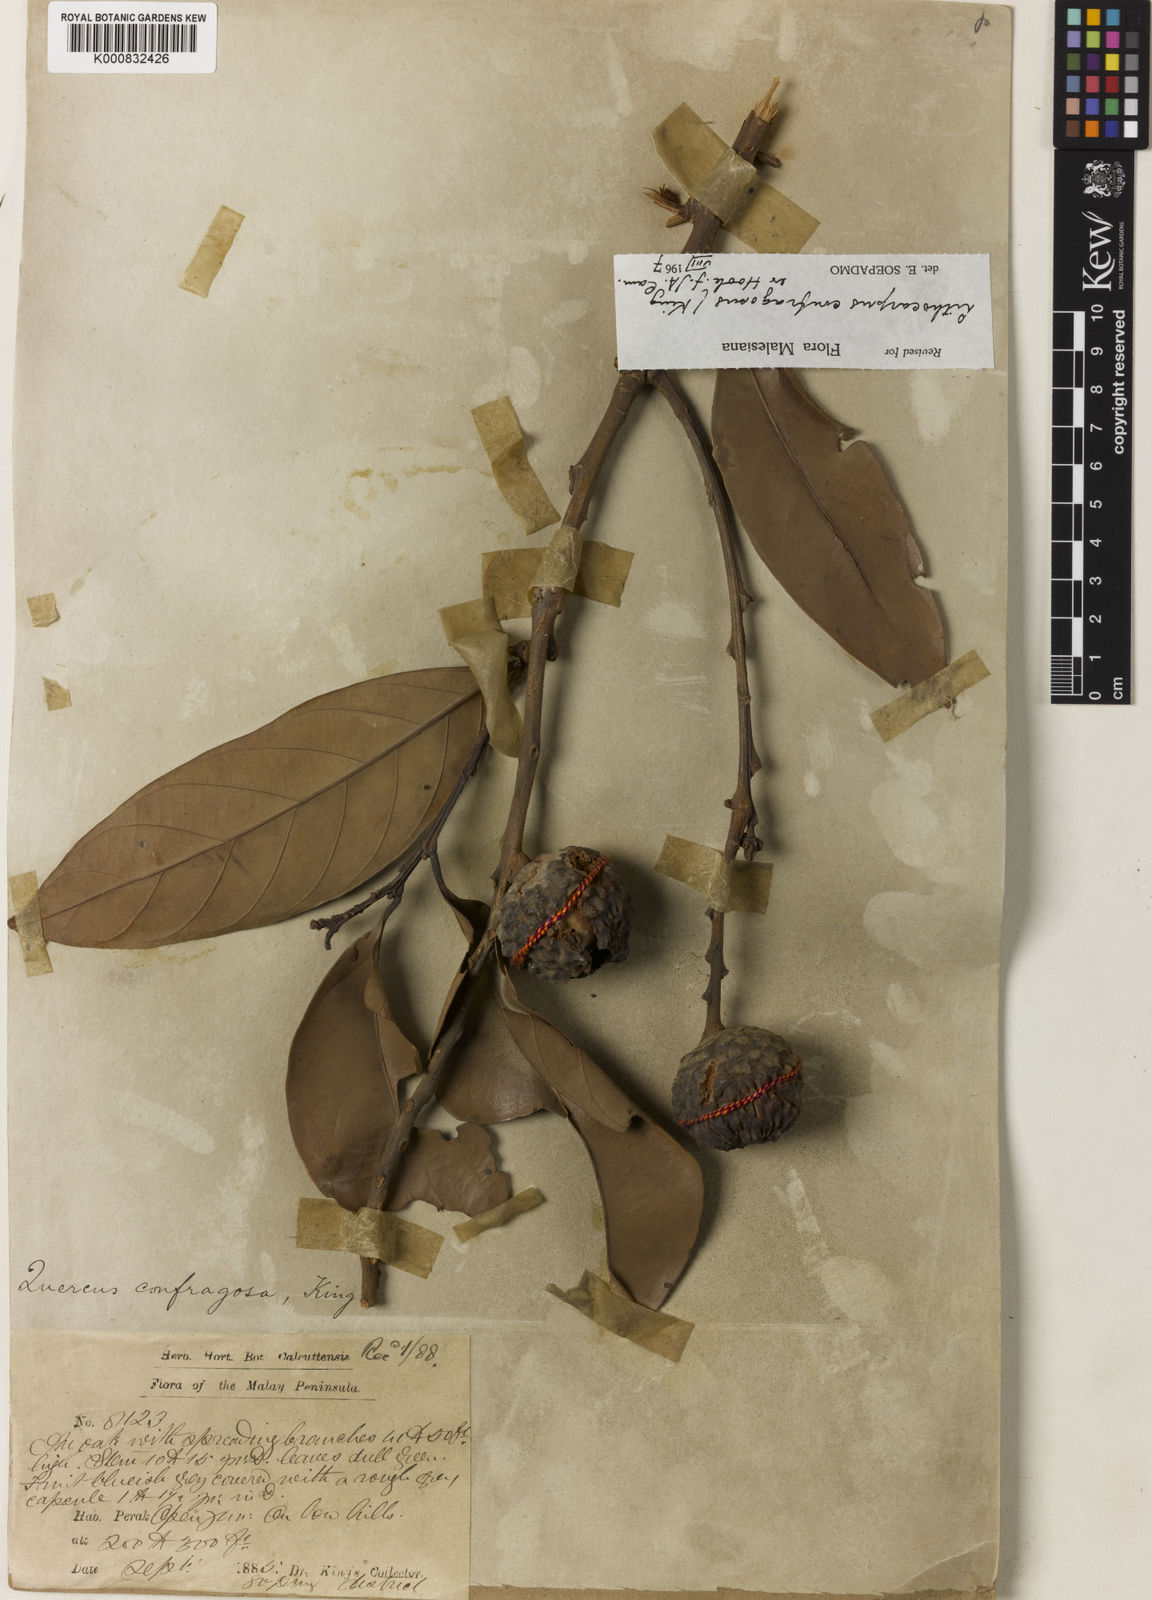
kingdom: Plantae
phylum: Tracheophyta
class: Magnoliopsida
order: Fagales
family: Fagaceae
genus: Lithocarpus
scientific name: Lithocarpus confragosus
